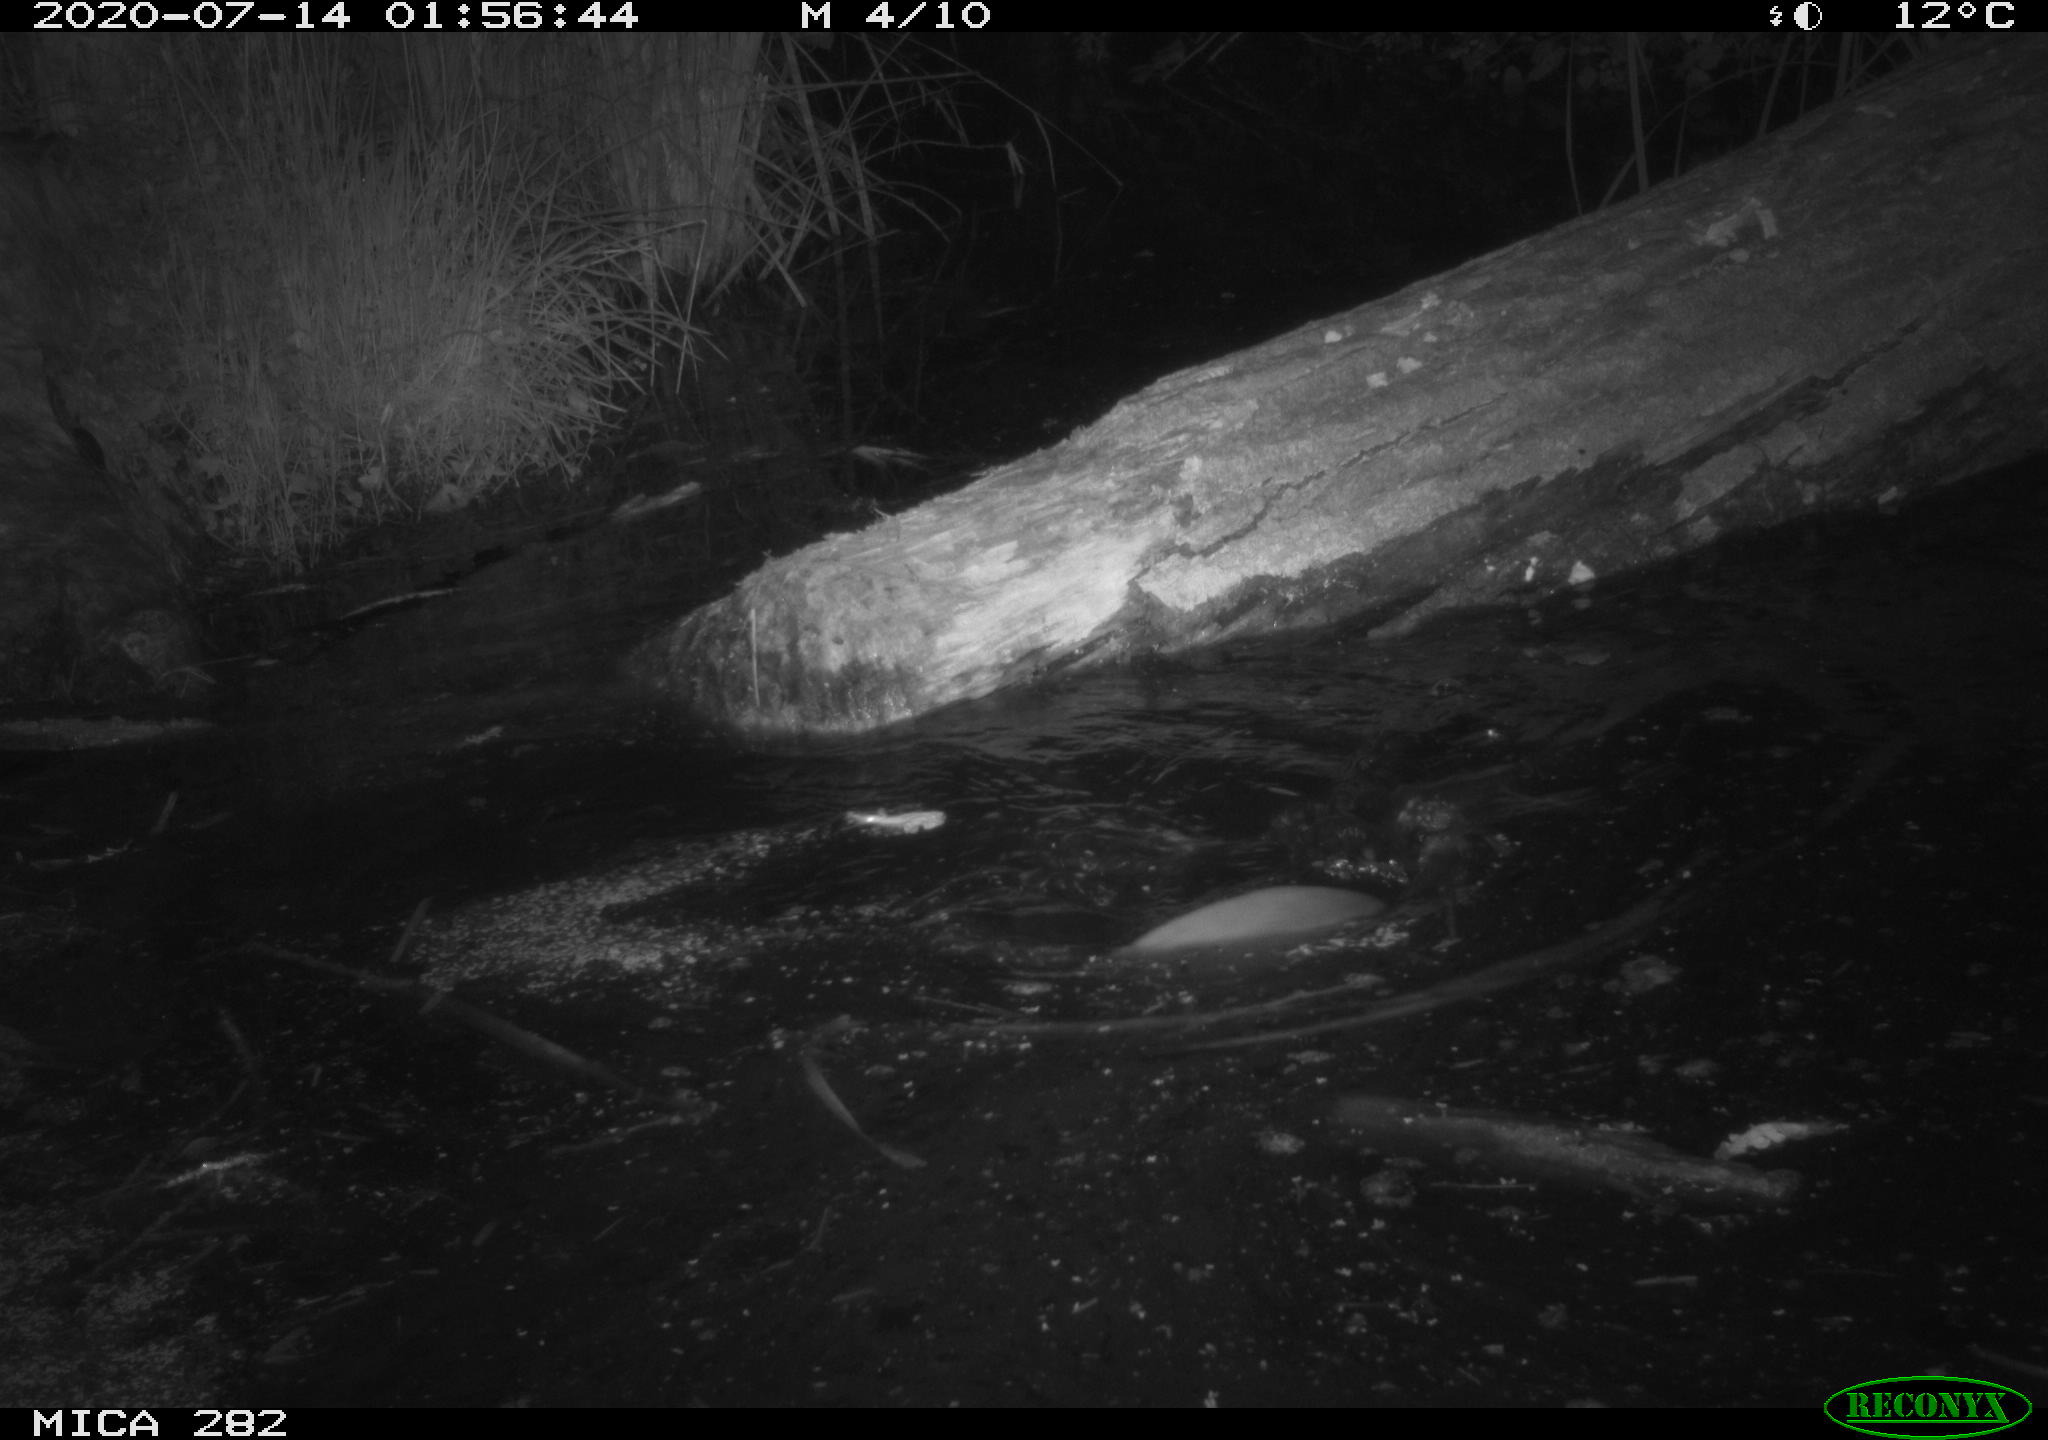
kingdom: Animalia
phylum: Chordata
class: Mammalia
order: Rodentia
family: Castoridae
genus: Castor
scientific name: Castor fiber
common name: Eurasian beaver
